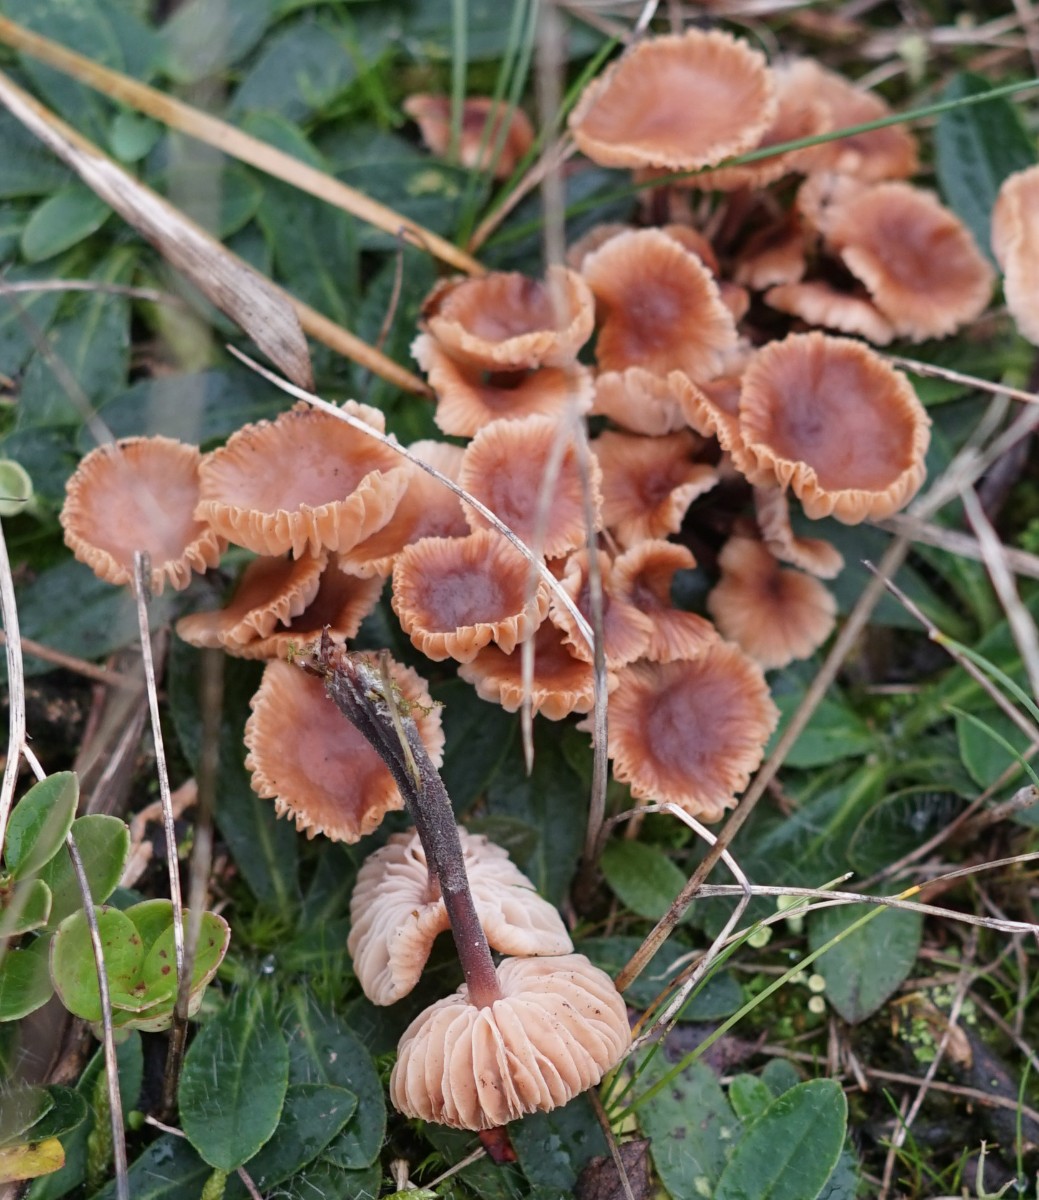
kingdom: Fungi
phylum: Basidiomycota
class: Agaricomycetes
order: Agaricales
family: Macrocystidiaceae
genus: Macrocystidia
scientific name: Macrocystidia
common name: agurkehat
